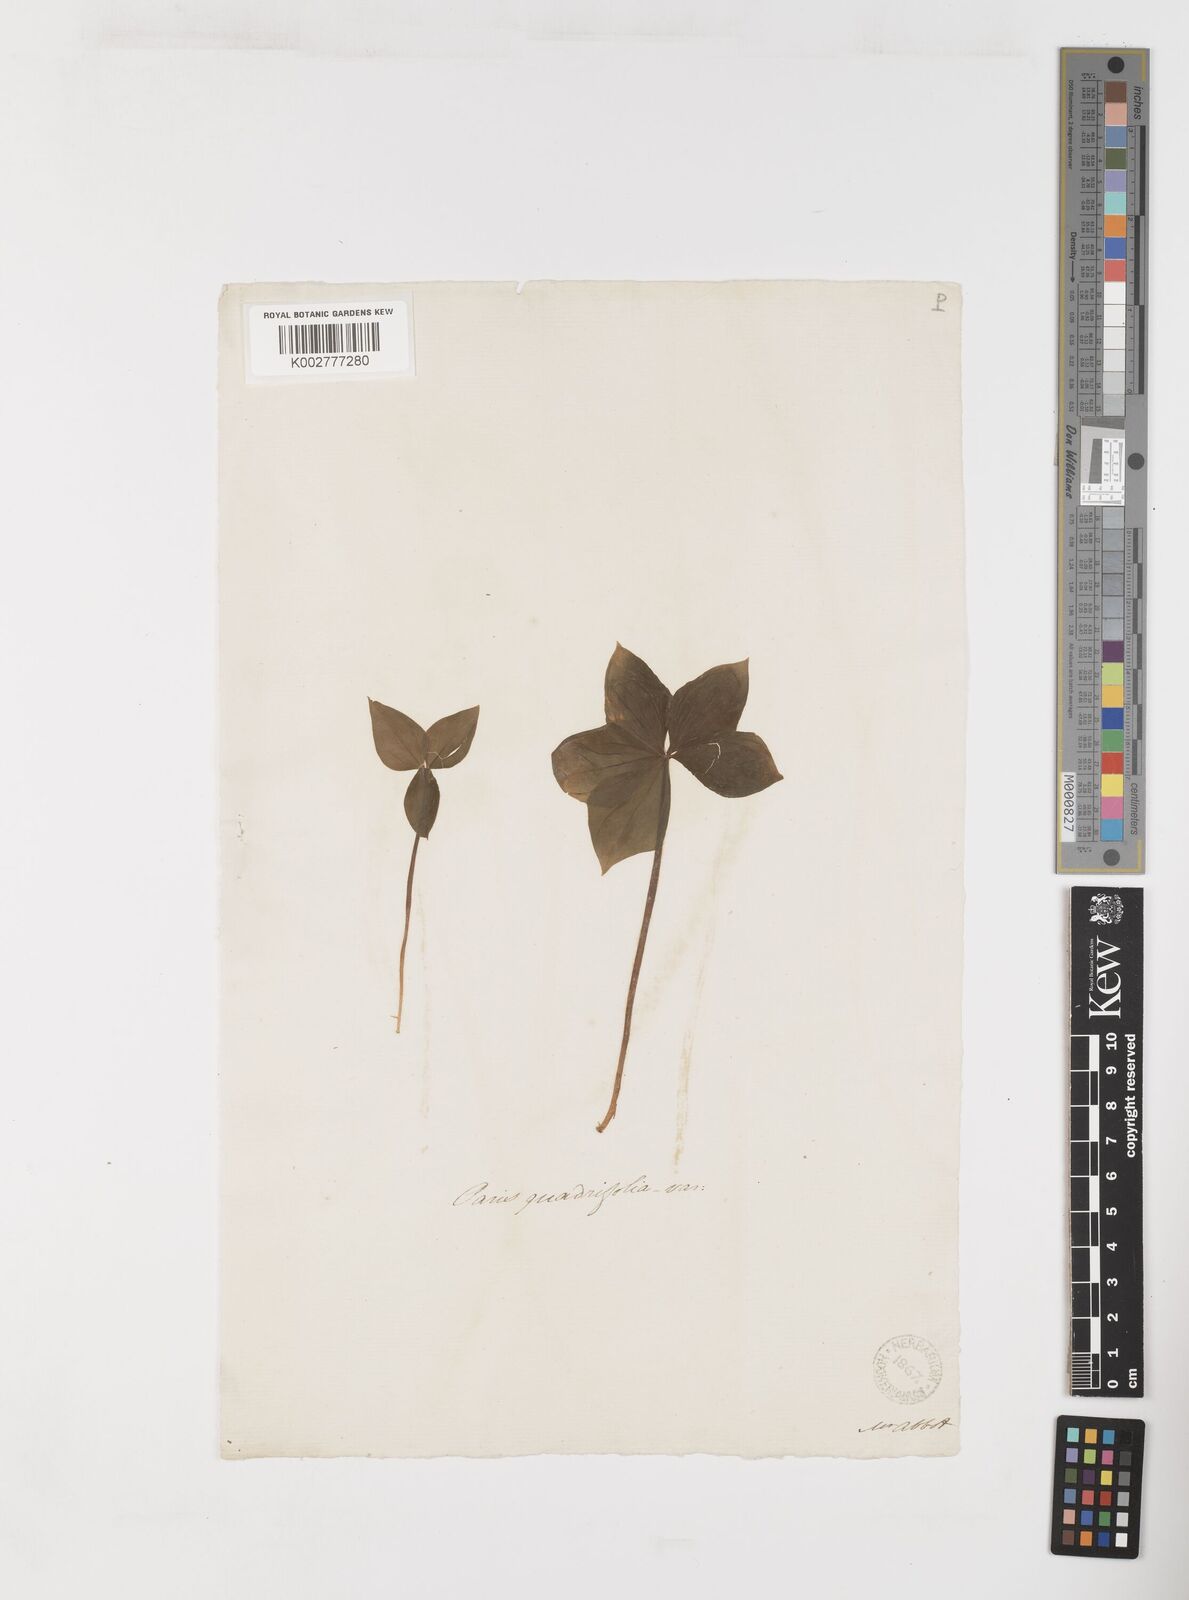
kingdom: Plantae
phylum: Tracheophyta
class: Liliopsida
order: Liliales
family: Melanthiaceae
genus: Paris
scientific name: Paris quadrifolia
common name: Herb-paris
